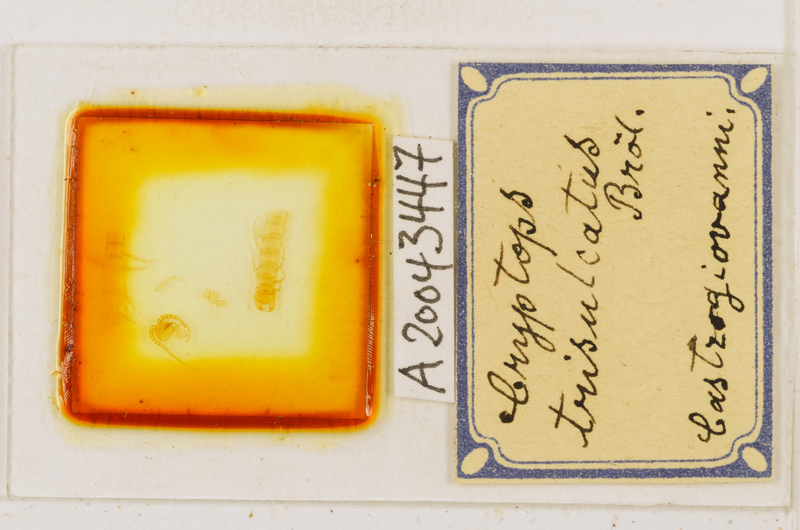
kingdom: Animalia
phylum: Arthropoda
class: Chilopoda
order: Scolopendromorpha
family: Cryptopidae
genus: Cryptops
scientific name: Cryptops trisulcatus
